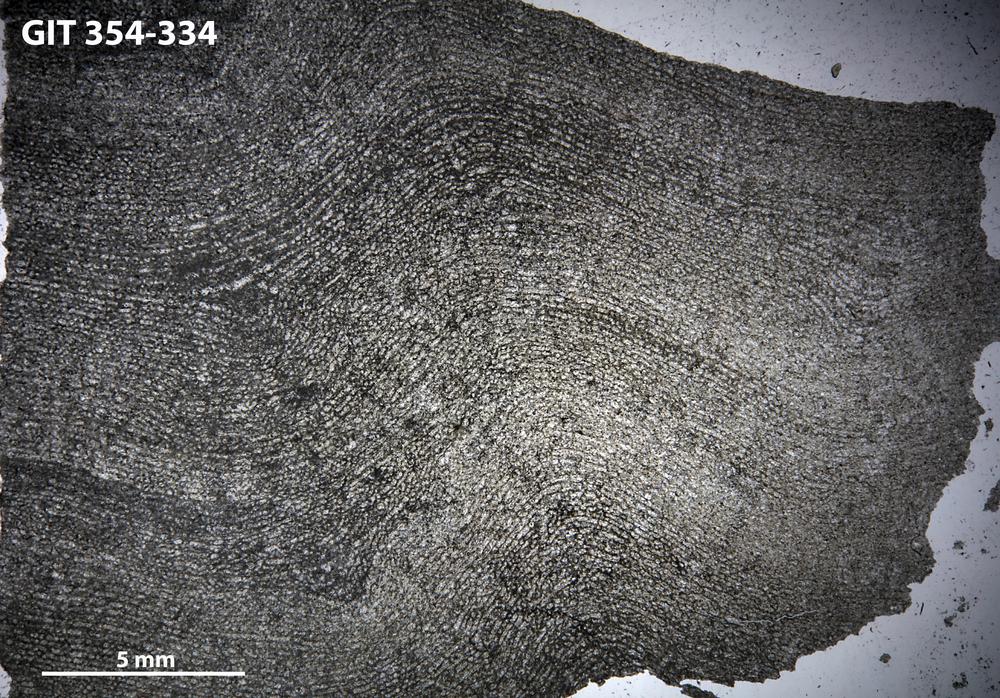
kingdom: Animalia
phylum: Porifera
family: Clathrodictyidae
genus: Clathrodictyon
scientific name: Clathrodictyon boreale
